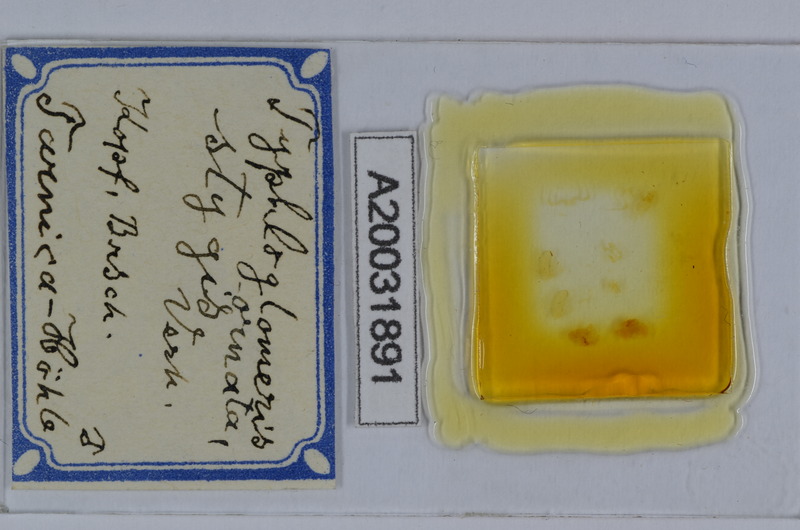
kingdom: Animalia
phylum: Arthropoda
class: Diplopoda
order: Glomerida
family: Glomeridellidae
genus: Typhloglomeris
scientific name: Typhloglomeris
